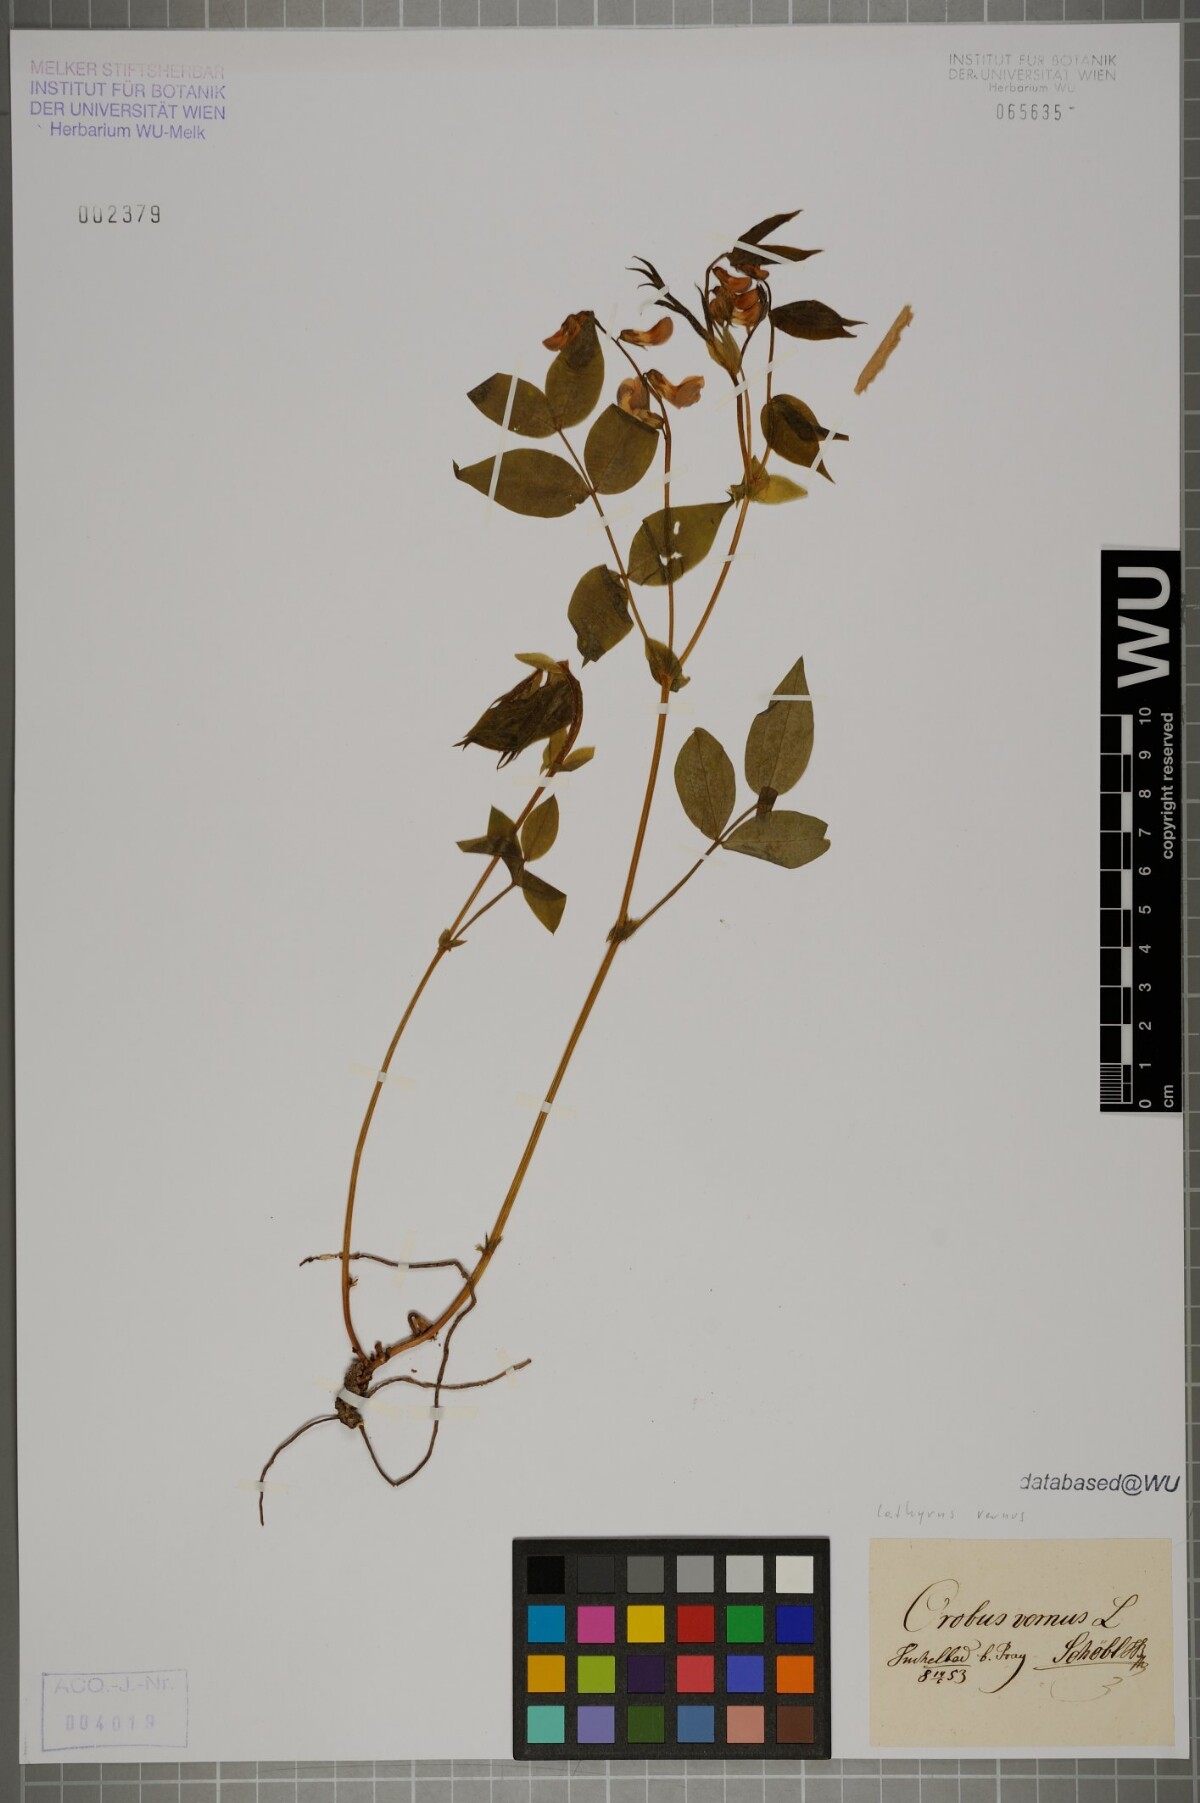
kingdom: Plantae
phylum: Tracheophyta
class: Magnoliopsida
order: Fabales
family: Fabaceae
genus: Lathyrus
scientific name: Lathyrus vernus
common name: Spring pea
